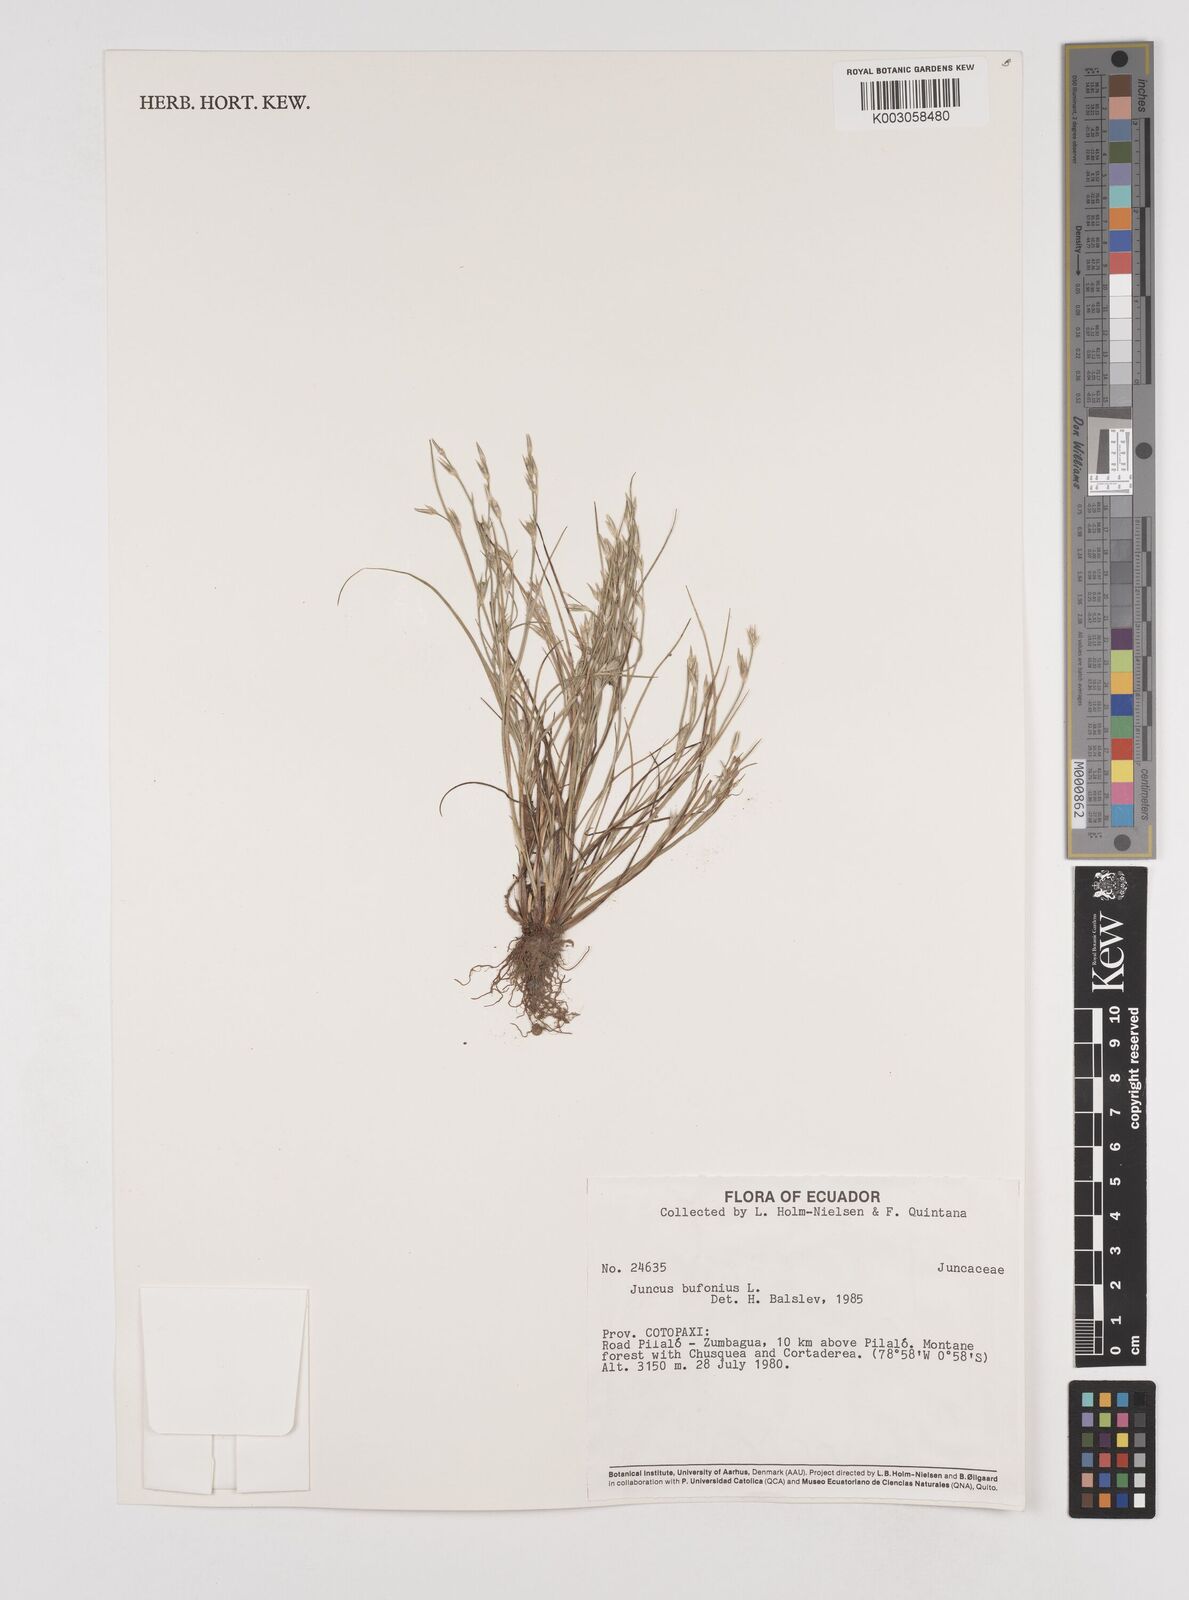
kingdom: Plantae
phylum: Tracheophyta
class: Liliopsida
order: Poales
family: Juncaceae
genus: Juncus
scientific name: Juncus bufonius
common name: Toad rush
